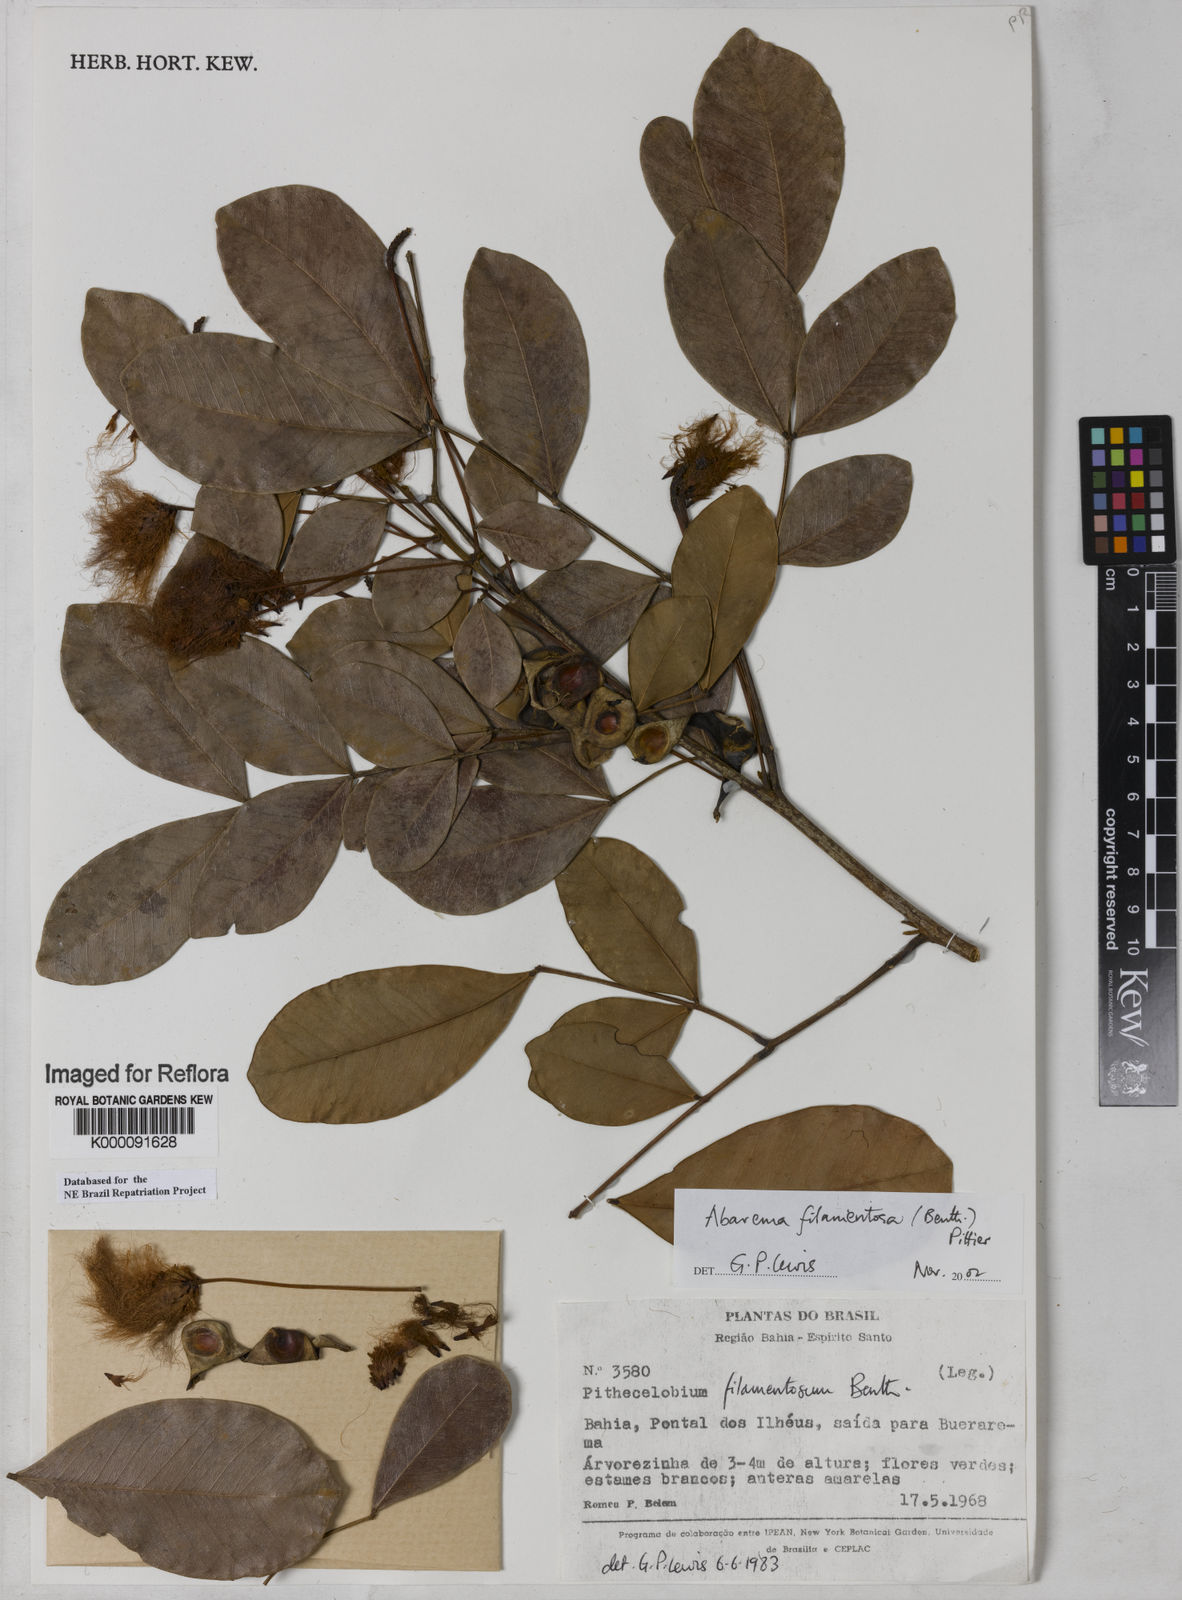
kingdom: Plantae
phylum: Tracheophyta
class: Magnoliopsida
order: Fabales
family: Fabaceae
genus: Jupunba
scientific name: Jupunba filamentosa
